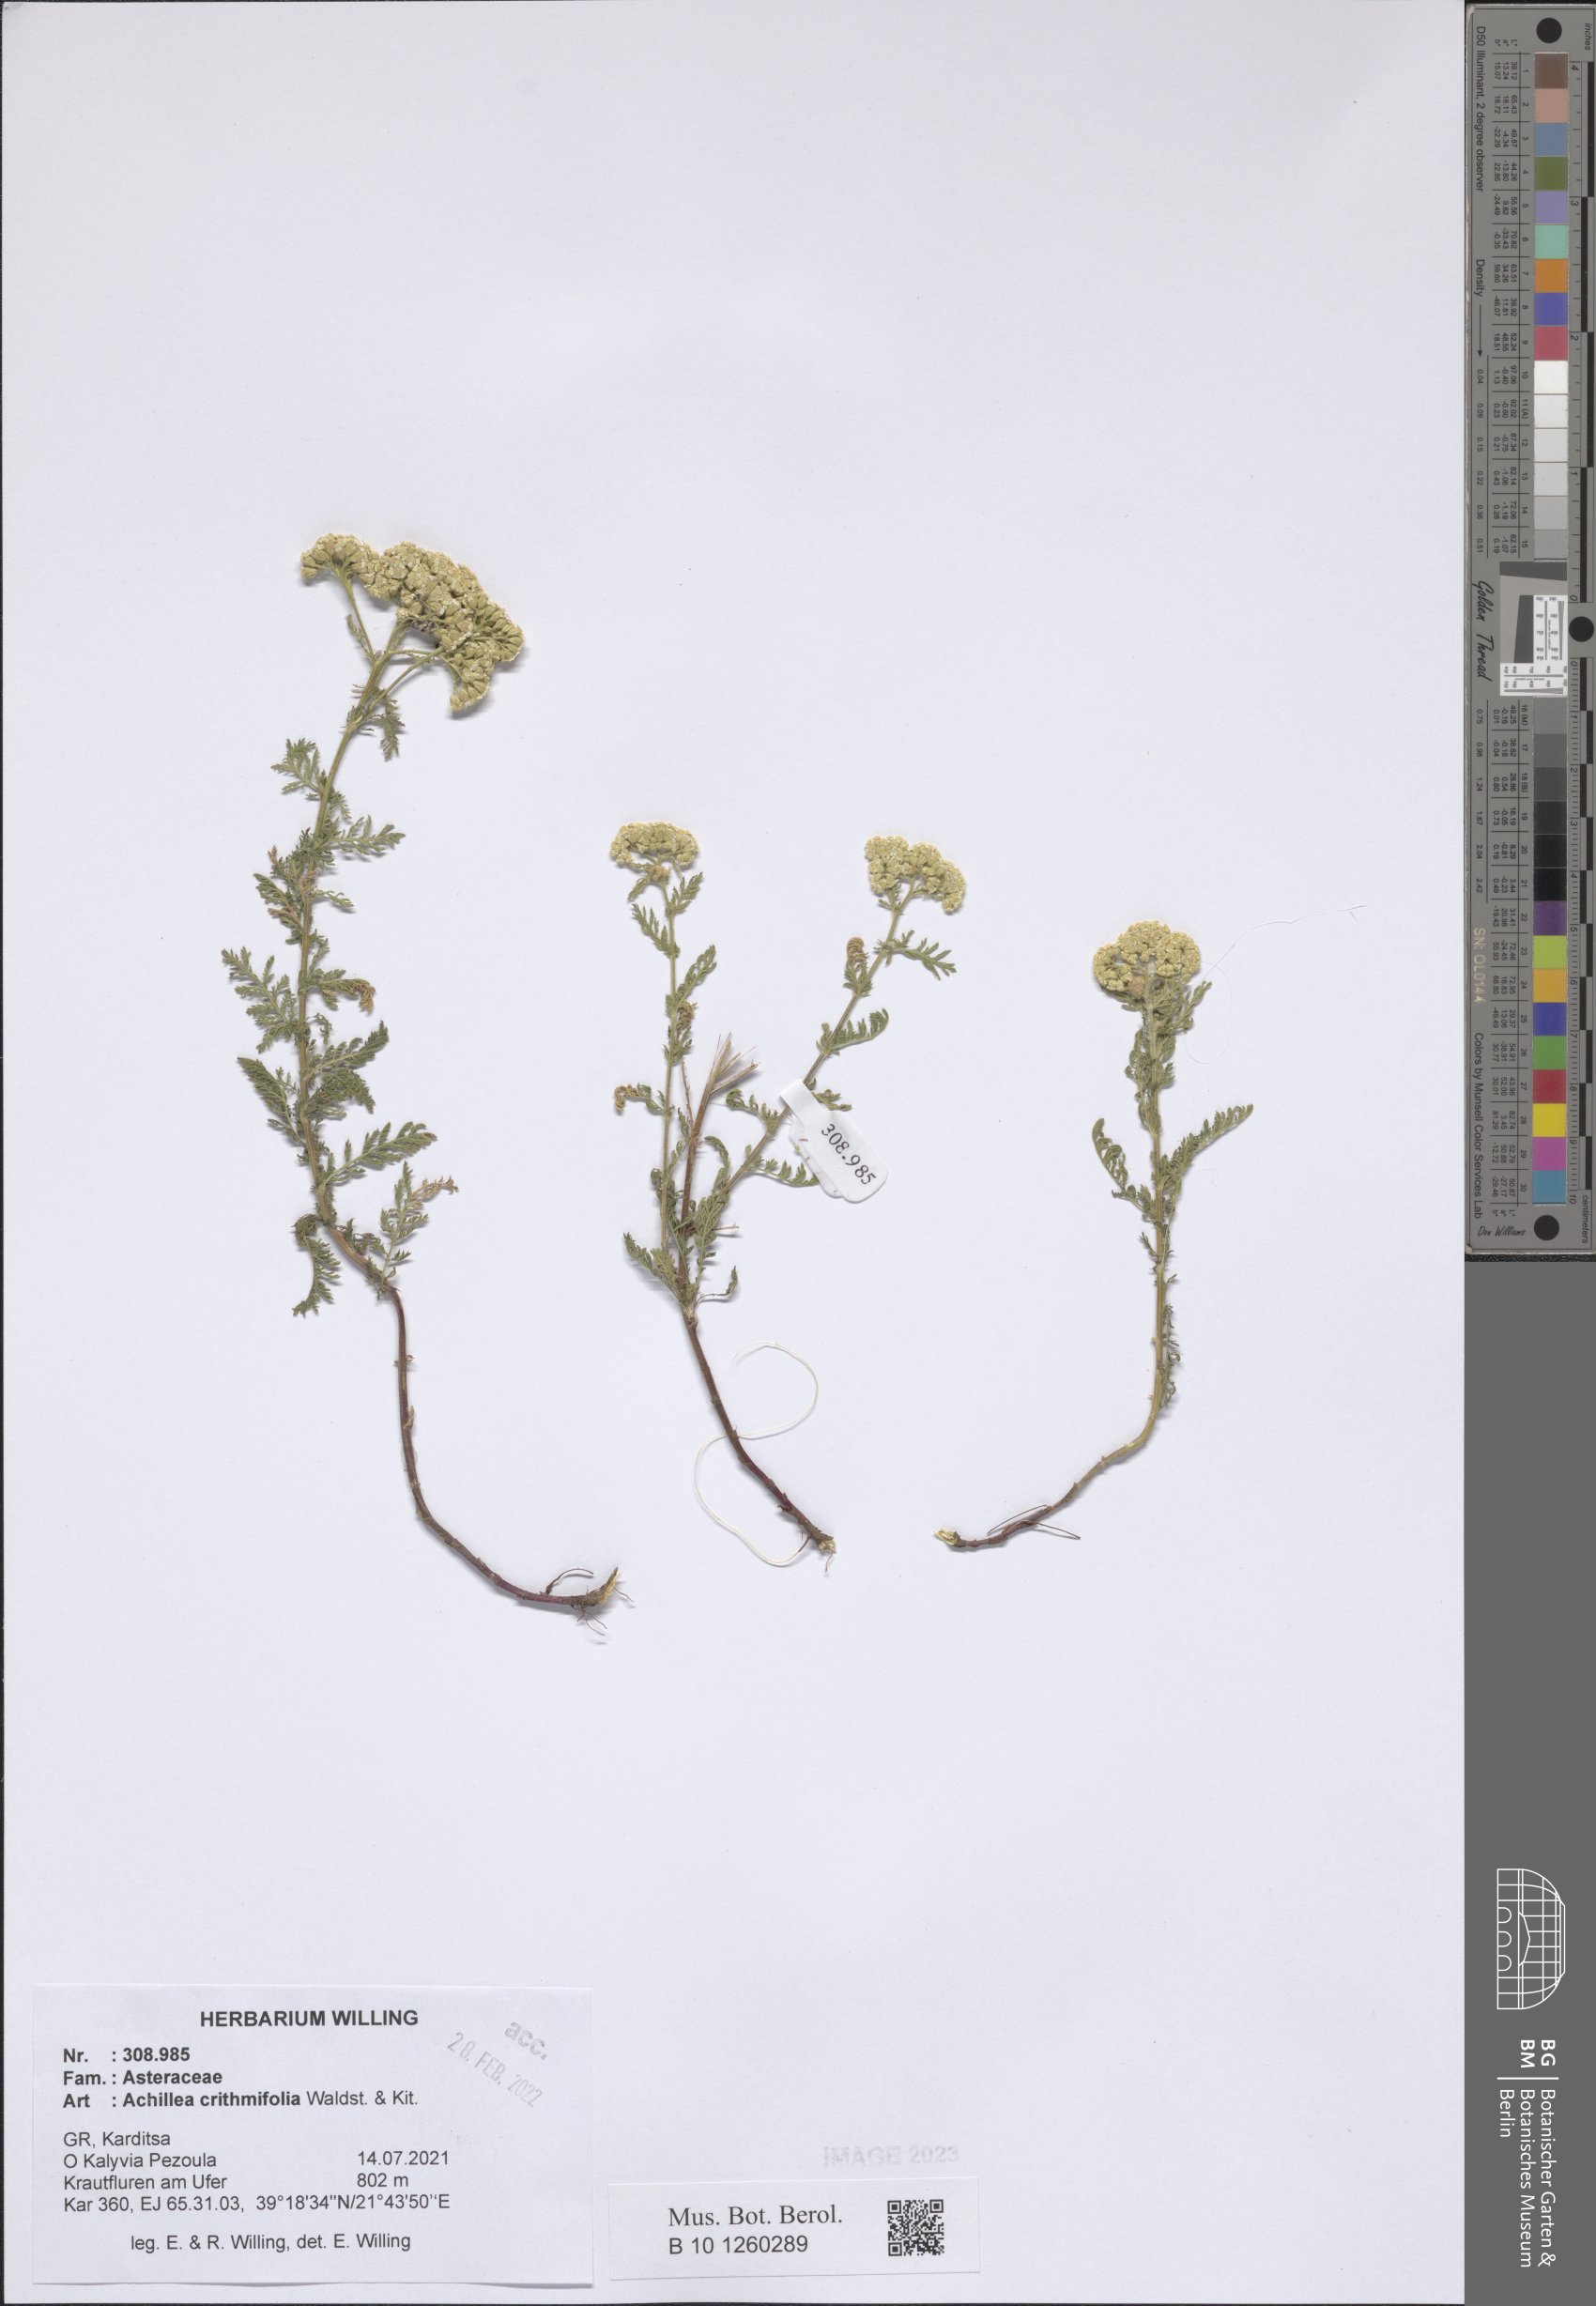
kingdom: Plantae
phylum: Tracheophyta
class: Magnoliopsida
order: Asterales
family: Asteraceae
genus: Achillea
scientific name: Achillea crithmifolia
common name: Yarrow
